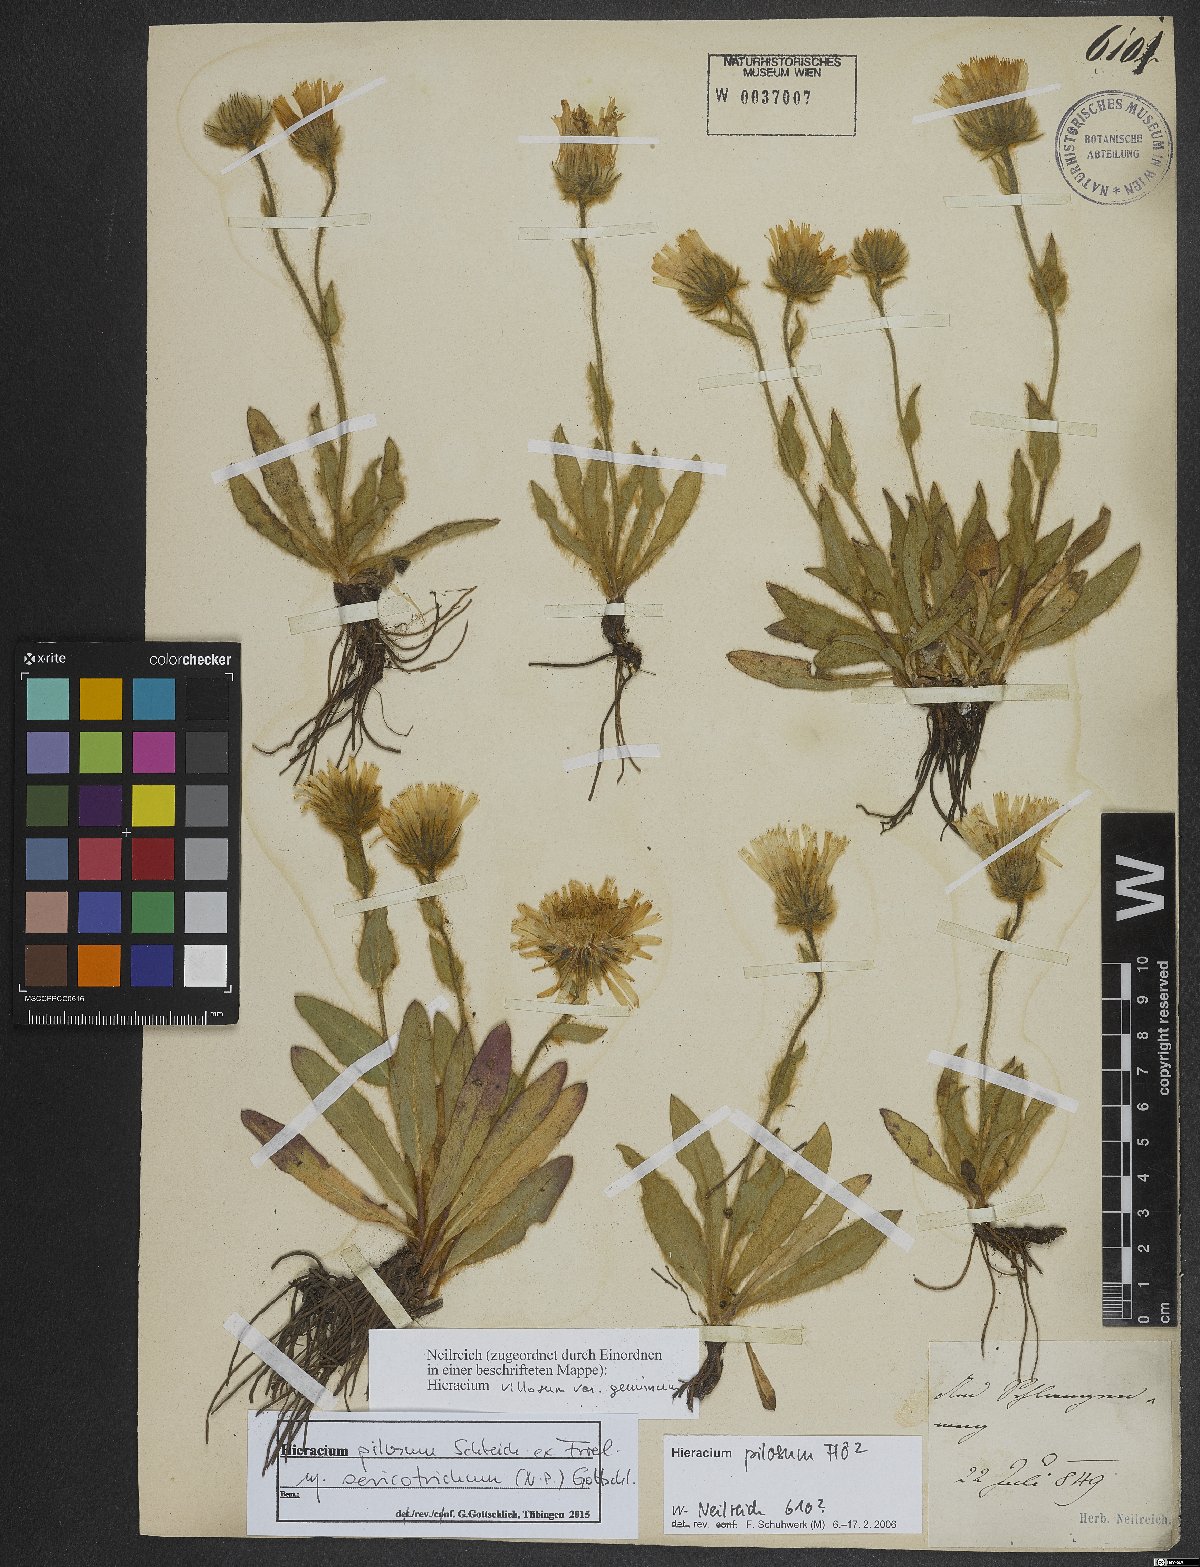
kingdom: Plantae
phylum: Tracheophyta
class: Magnoliopsida
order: Asterales
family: Asteraceae
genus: Hieracium
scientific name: Hieracium pilosum
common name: Fimbriate-pitted hawkweed
